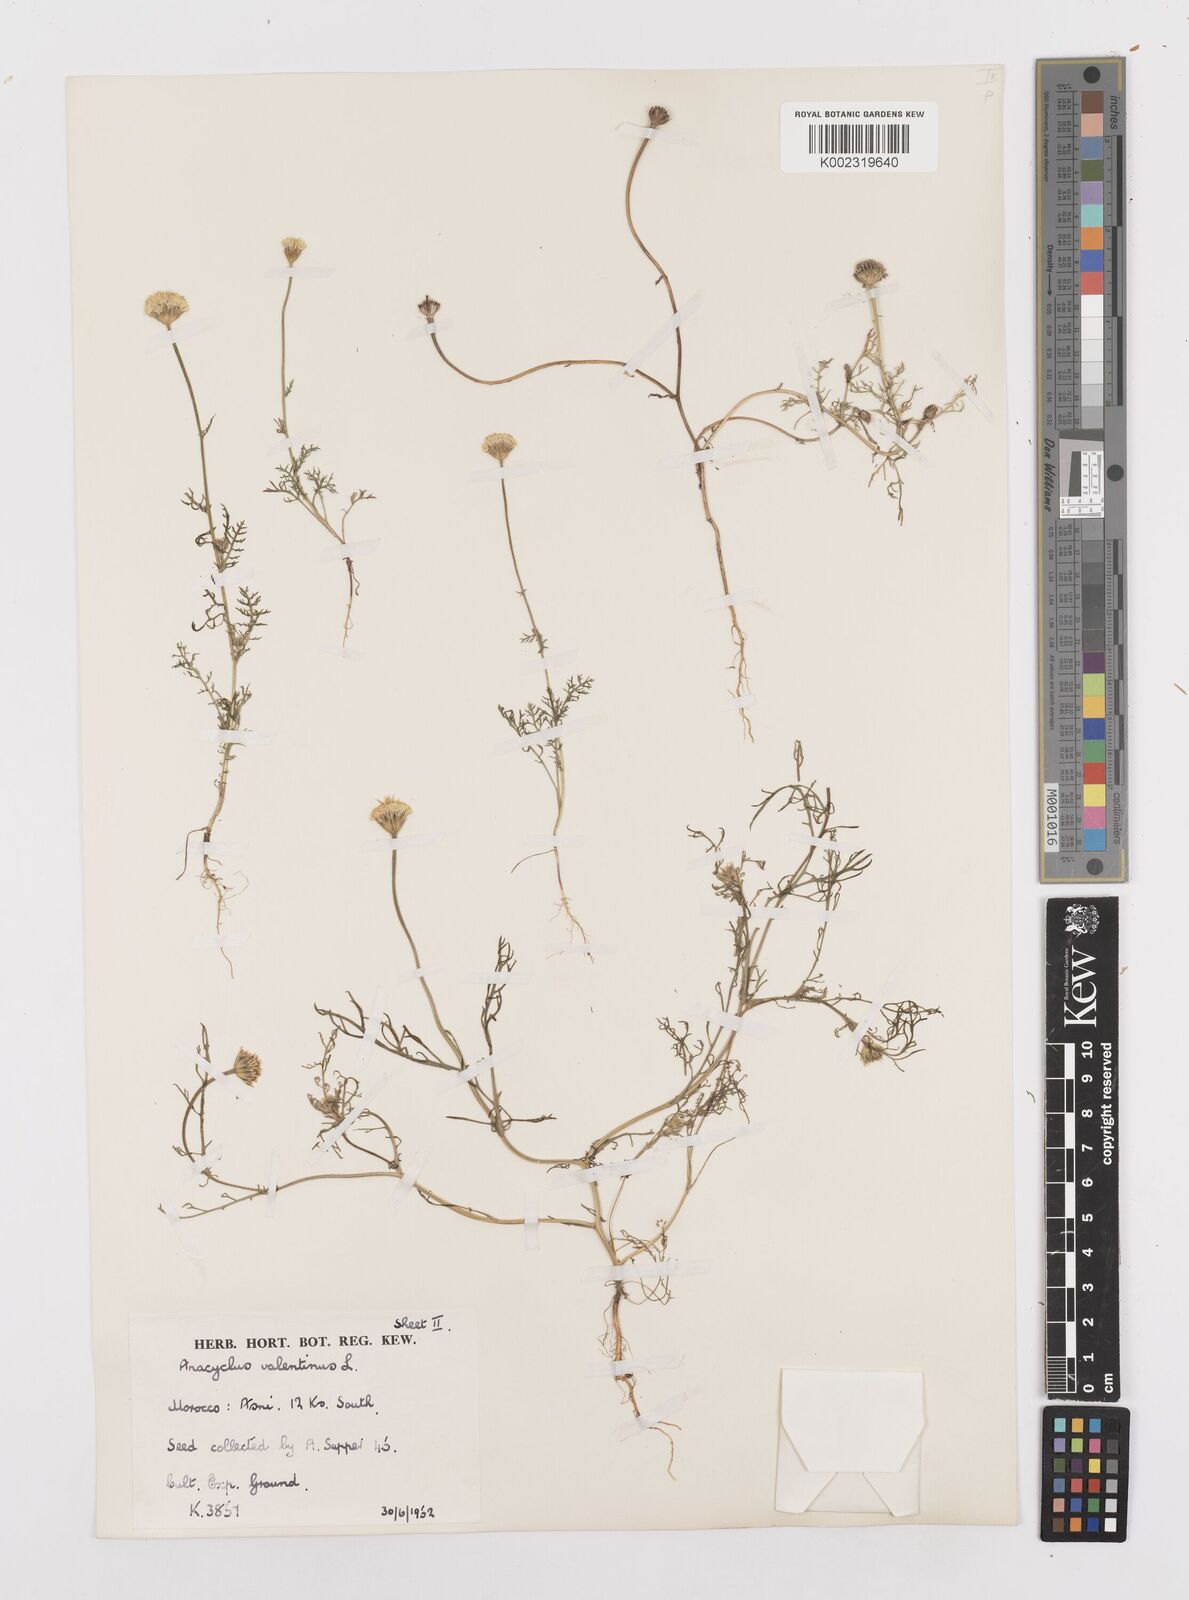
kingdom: Plantae
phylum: Tracheophyta
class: Magnoliopsida
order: Asterales
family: Asteraceae
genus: Anacyclus
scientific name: Anacyclus valentinus
